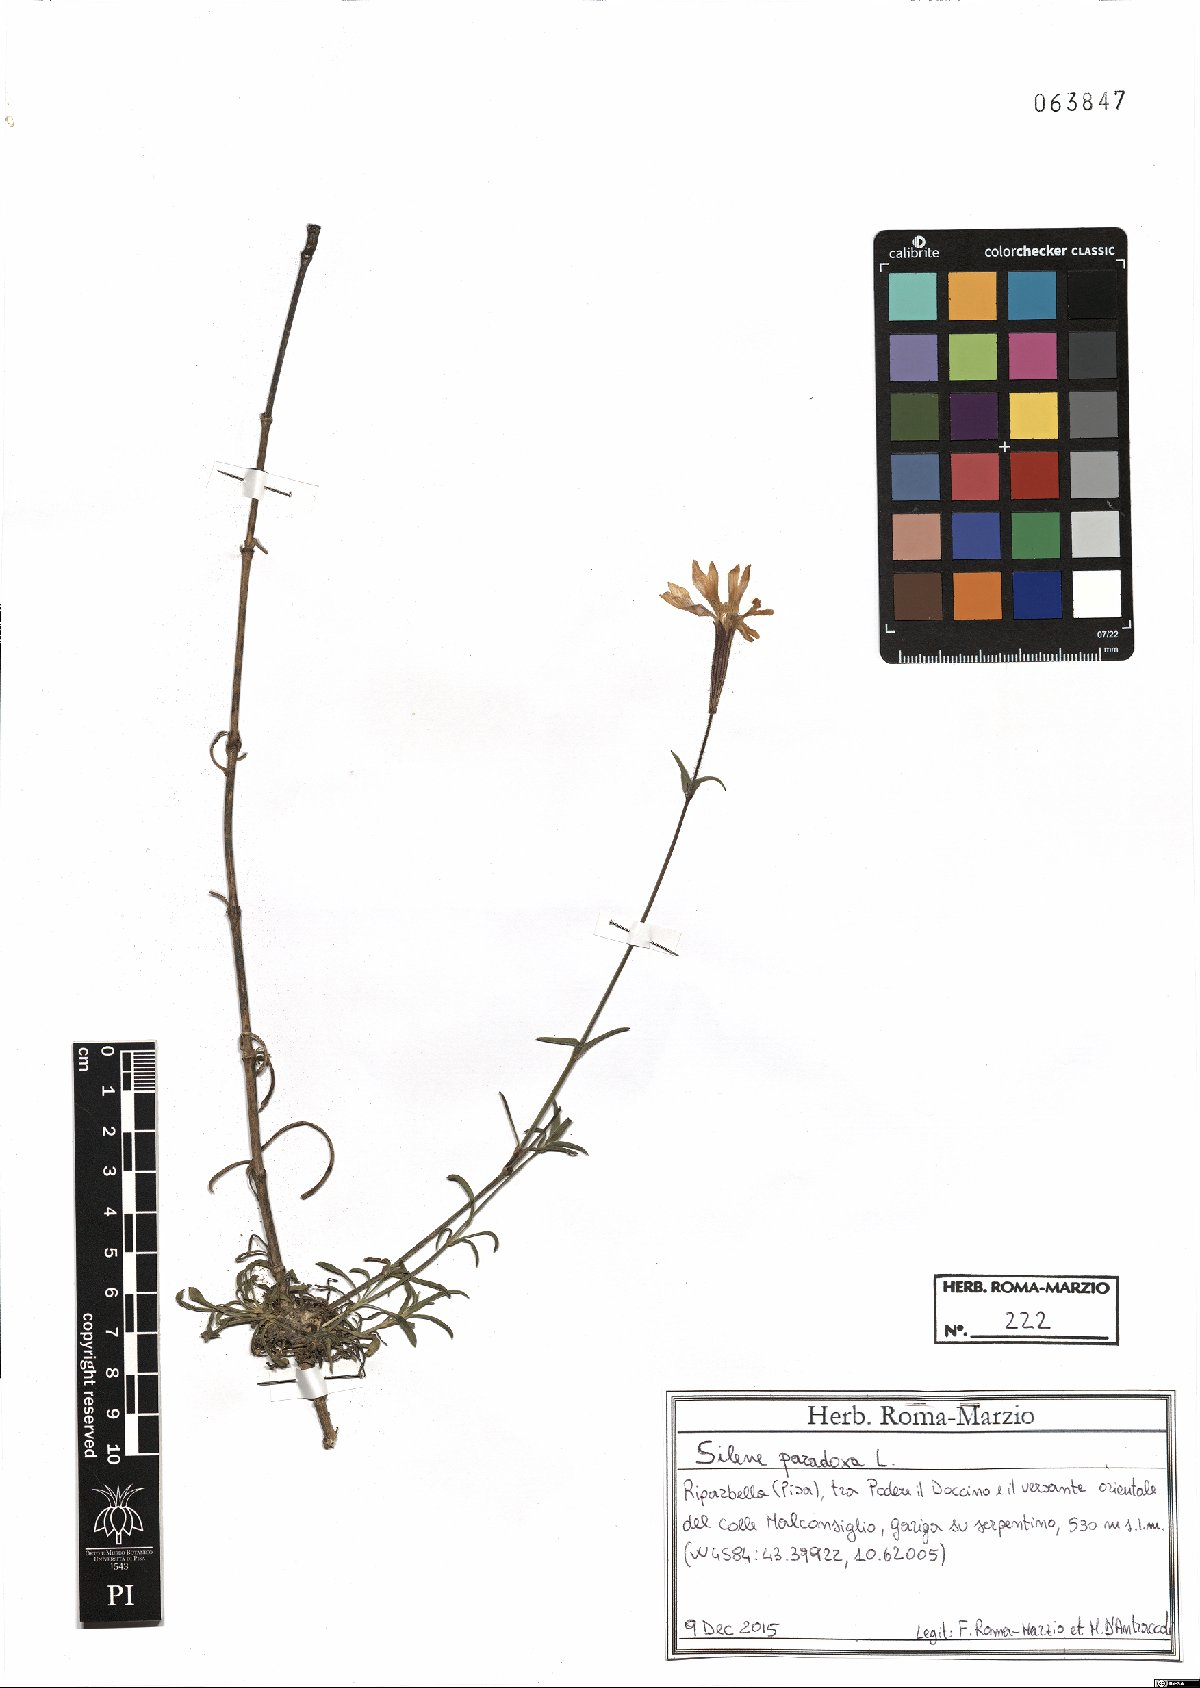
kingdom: Plantae
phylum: Tracheophyta
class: Magnoliopsida
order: Caryophyllales
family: Caryophyllaceae
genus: Silene
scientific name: Silene paradoxa
